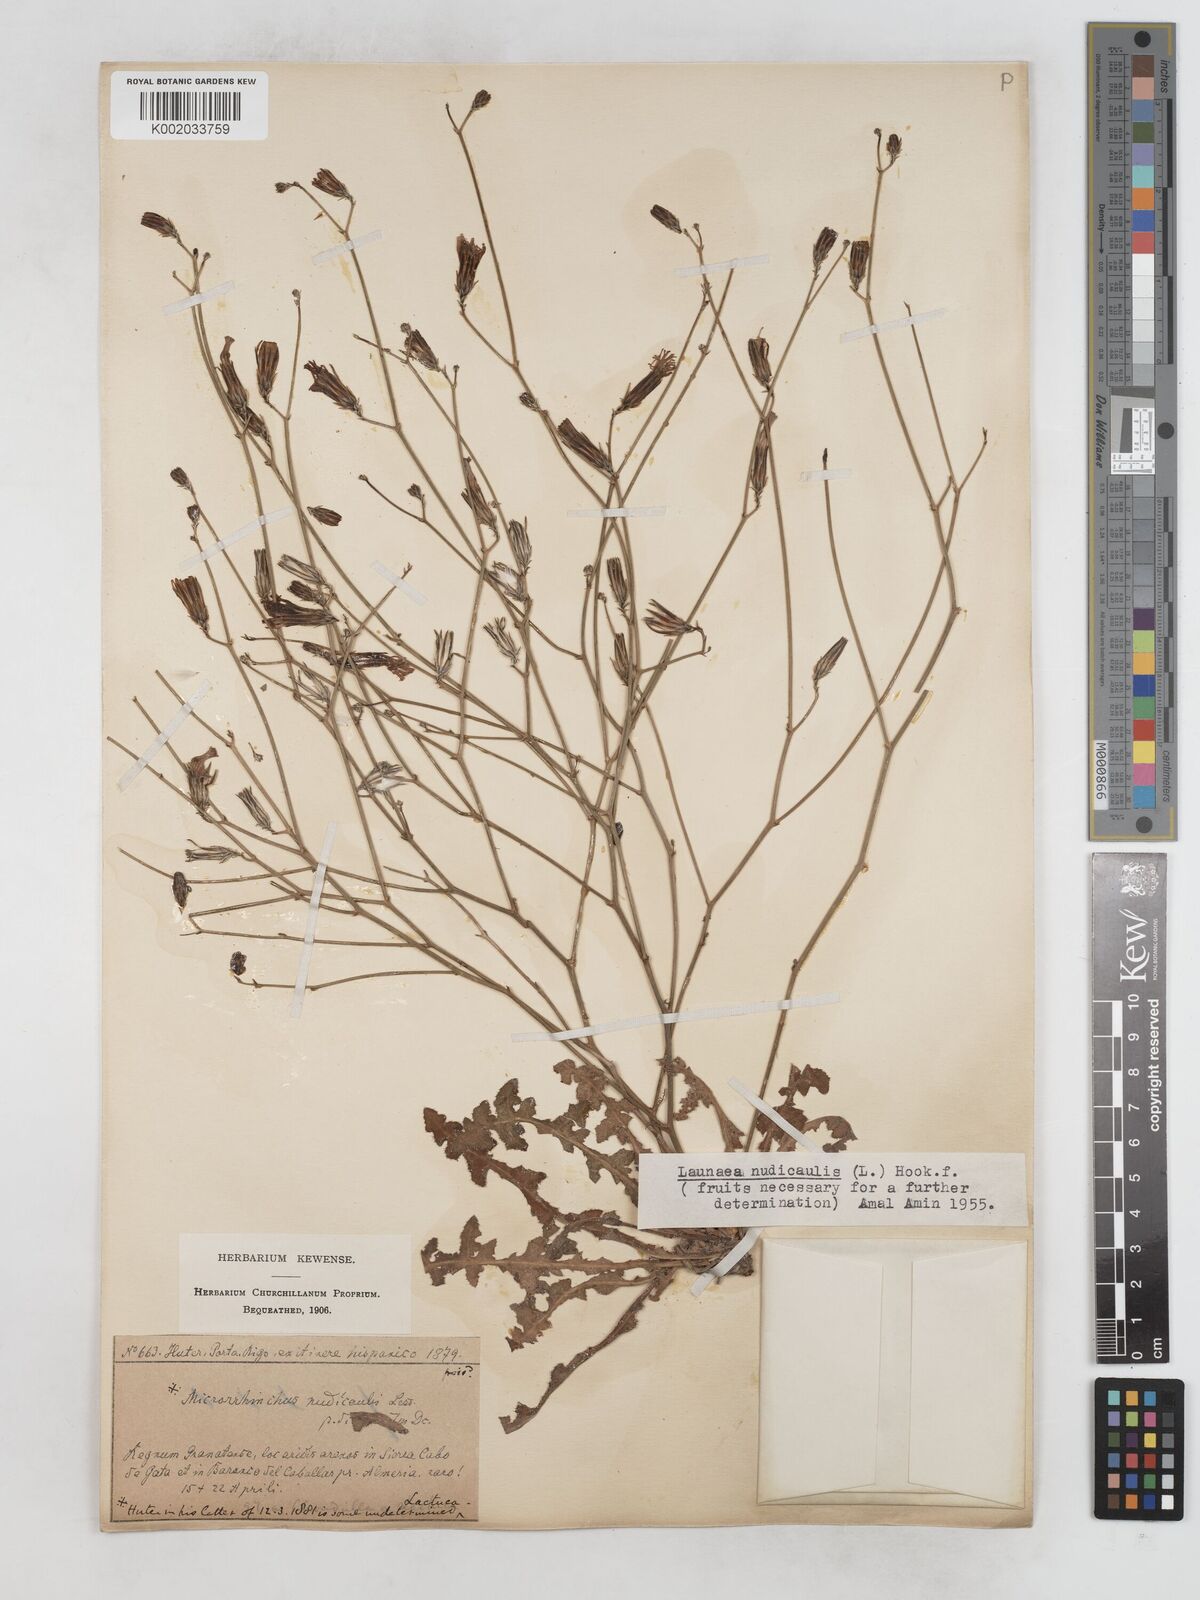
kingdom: Plantae
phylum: Tracheophyta
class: Magnoliopsida
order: Asterales
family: Asteraceae
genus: Launaea
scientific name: Launaea nudicaulis
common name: Naked launaea
